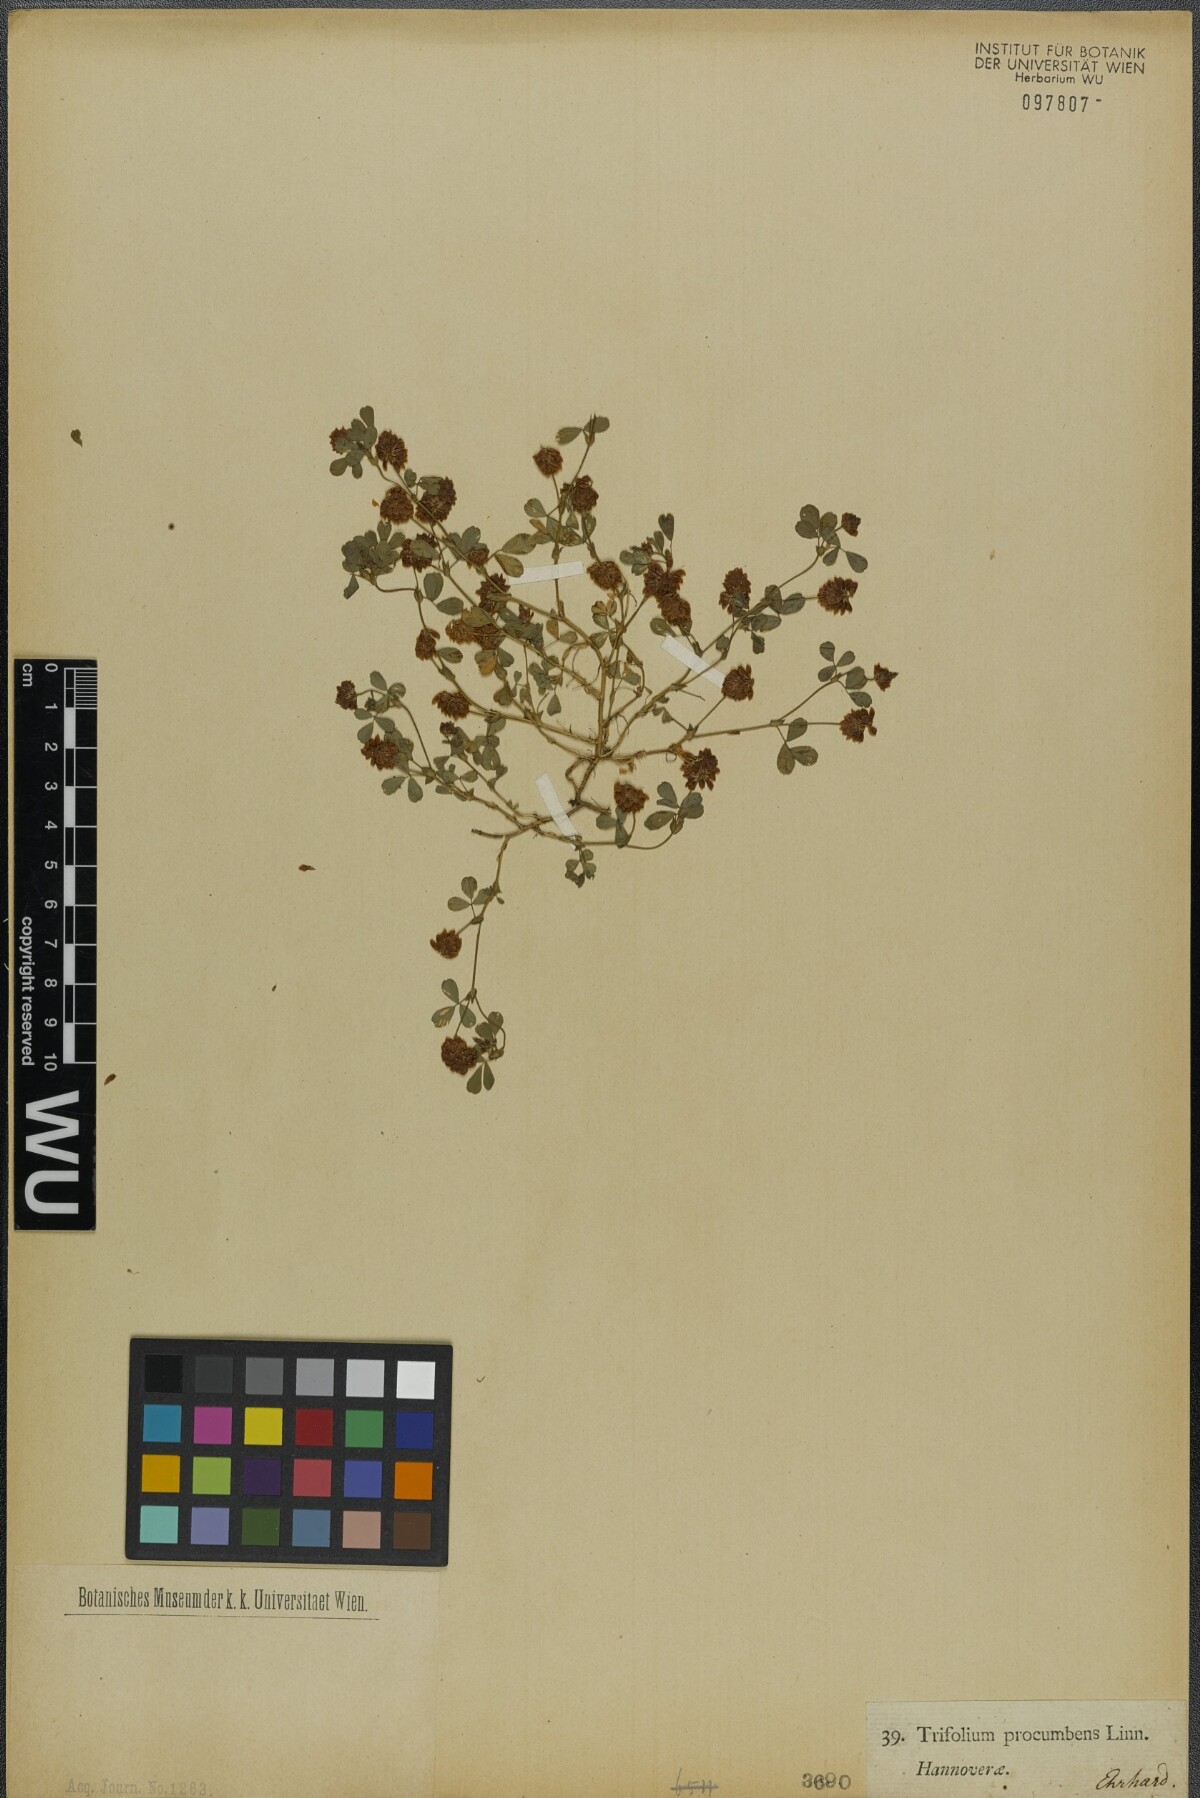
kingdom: Plantae
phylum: Tracheophyta
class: Magnoliopsida
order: Fabales
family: Fabaceae
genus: Trifolium
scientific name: Trifolium campestre
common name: Field clover
